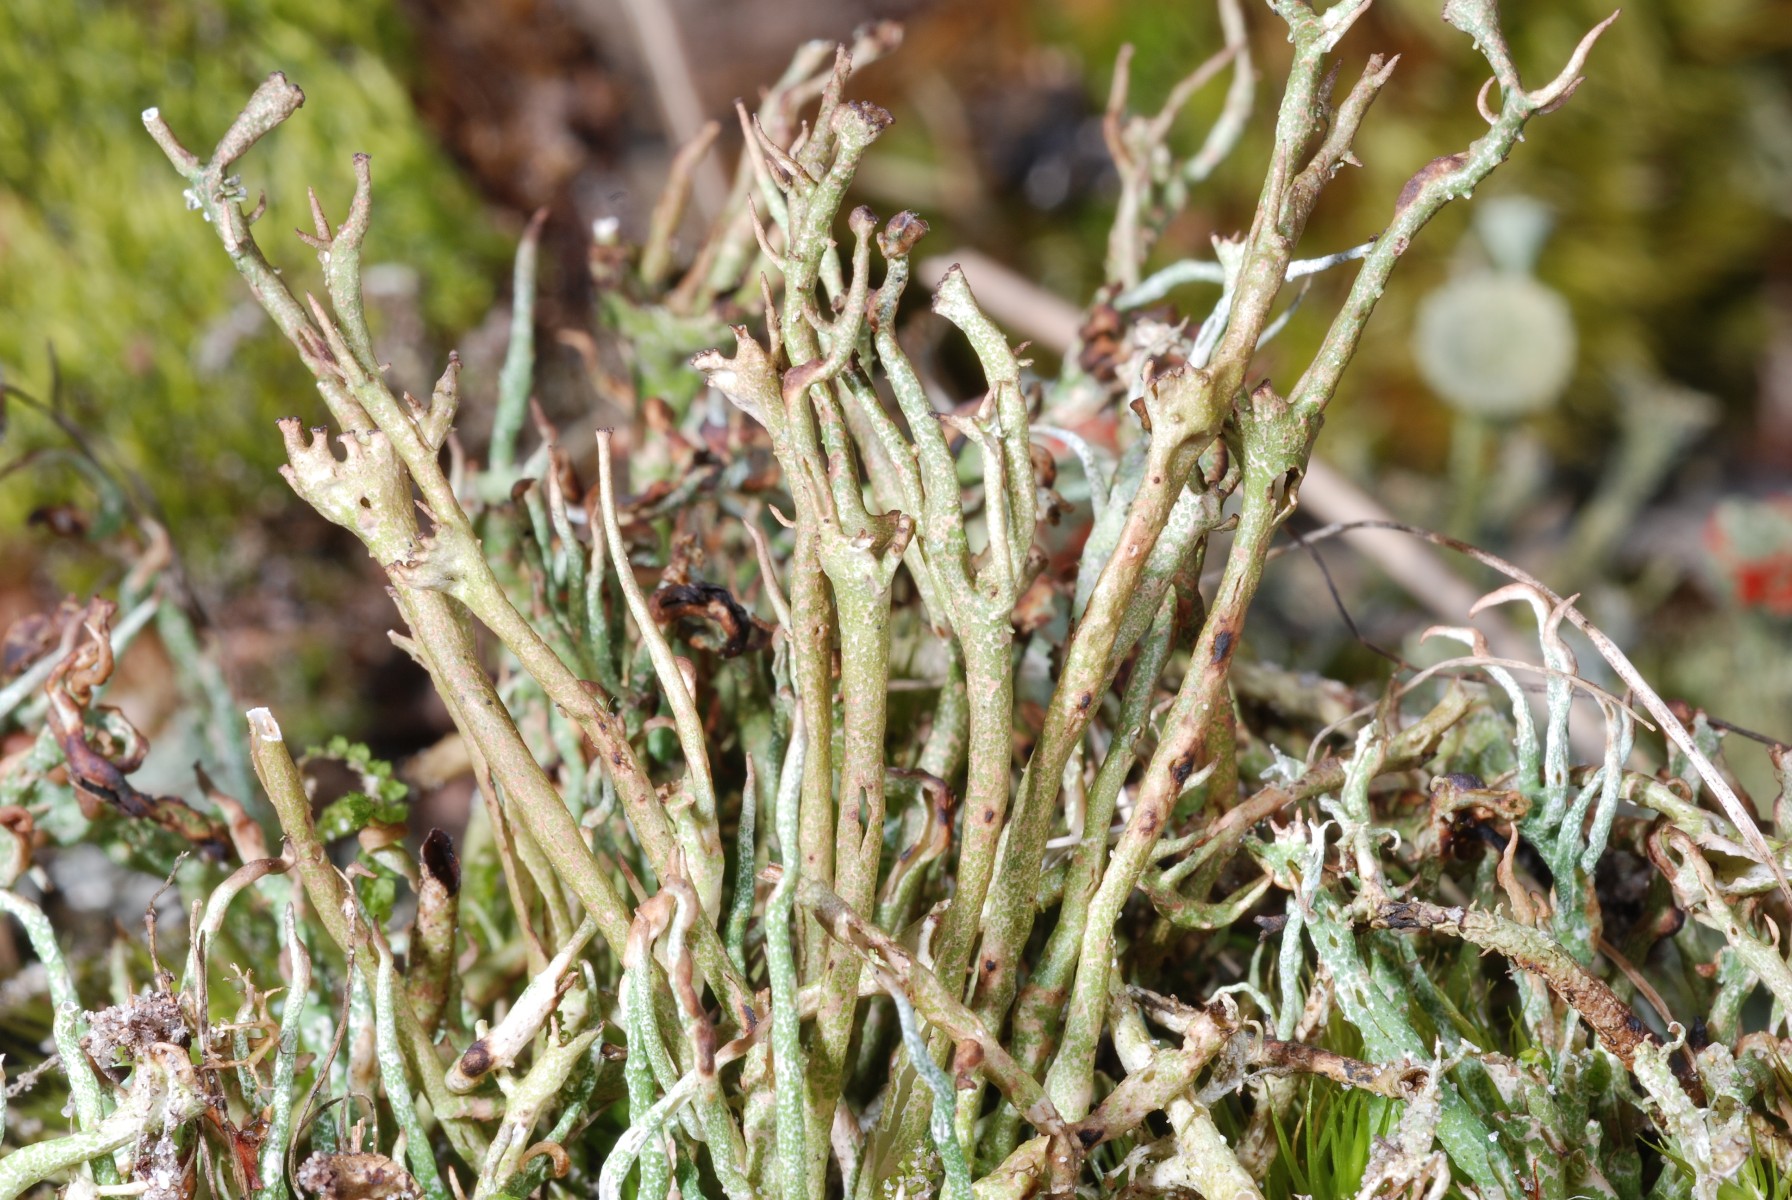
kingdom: Fungi
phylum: Ascomycota
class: Lecanoromycetes
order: Lecanorales
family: Cladoniaceae
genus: Cladonia
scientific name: Cladonia gracilis
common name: slank bægerlav
